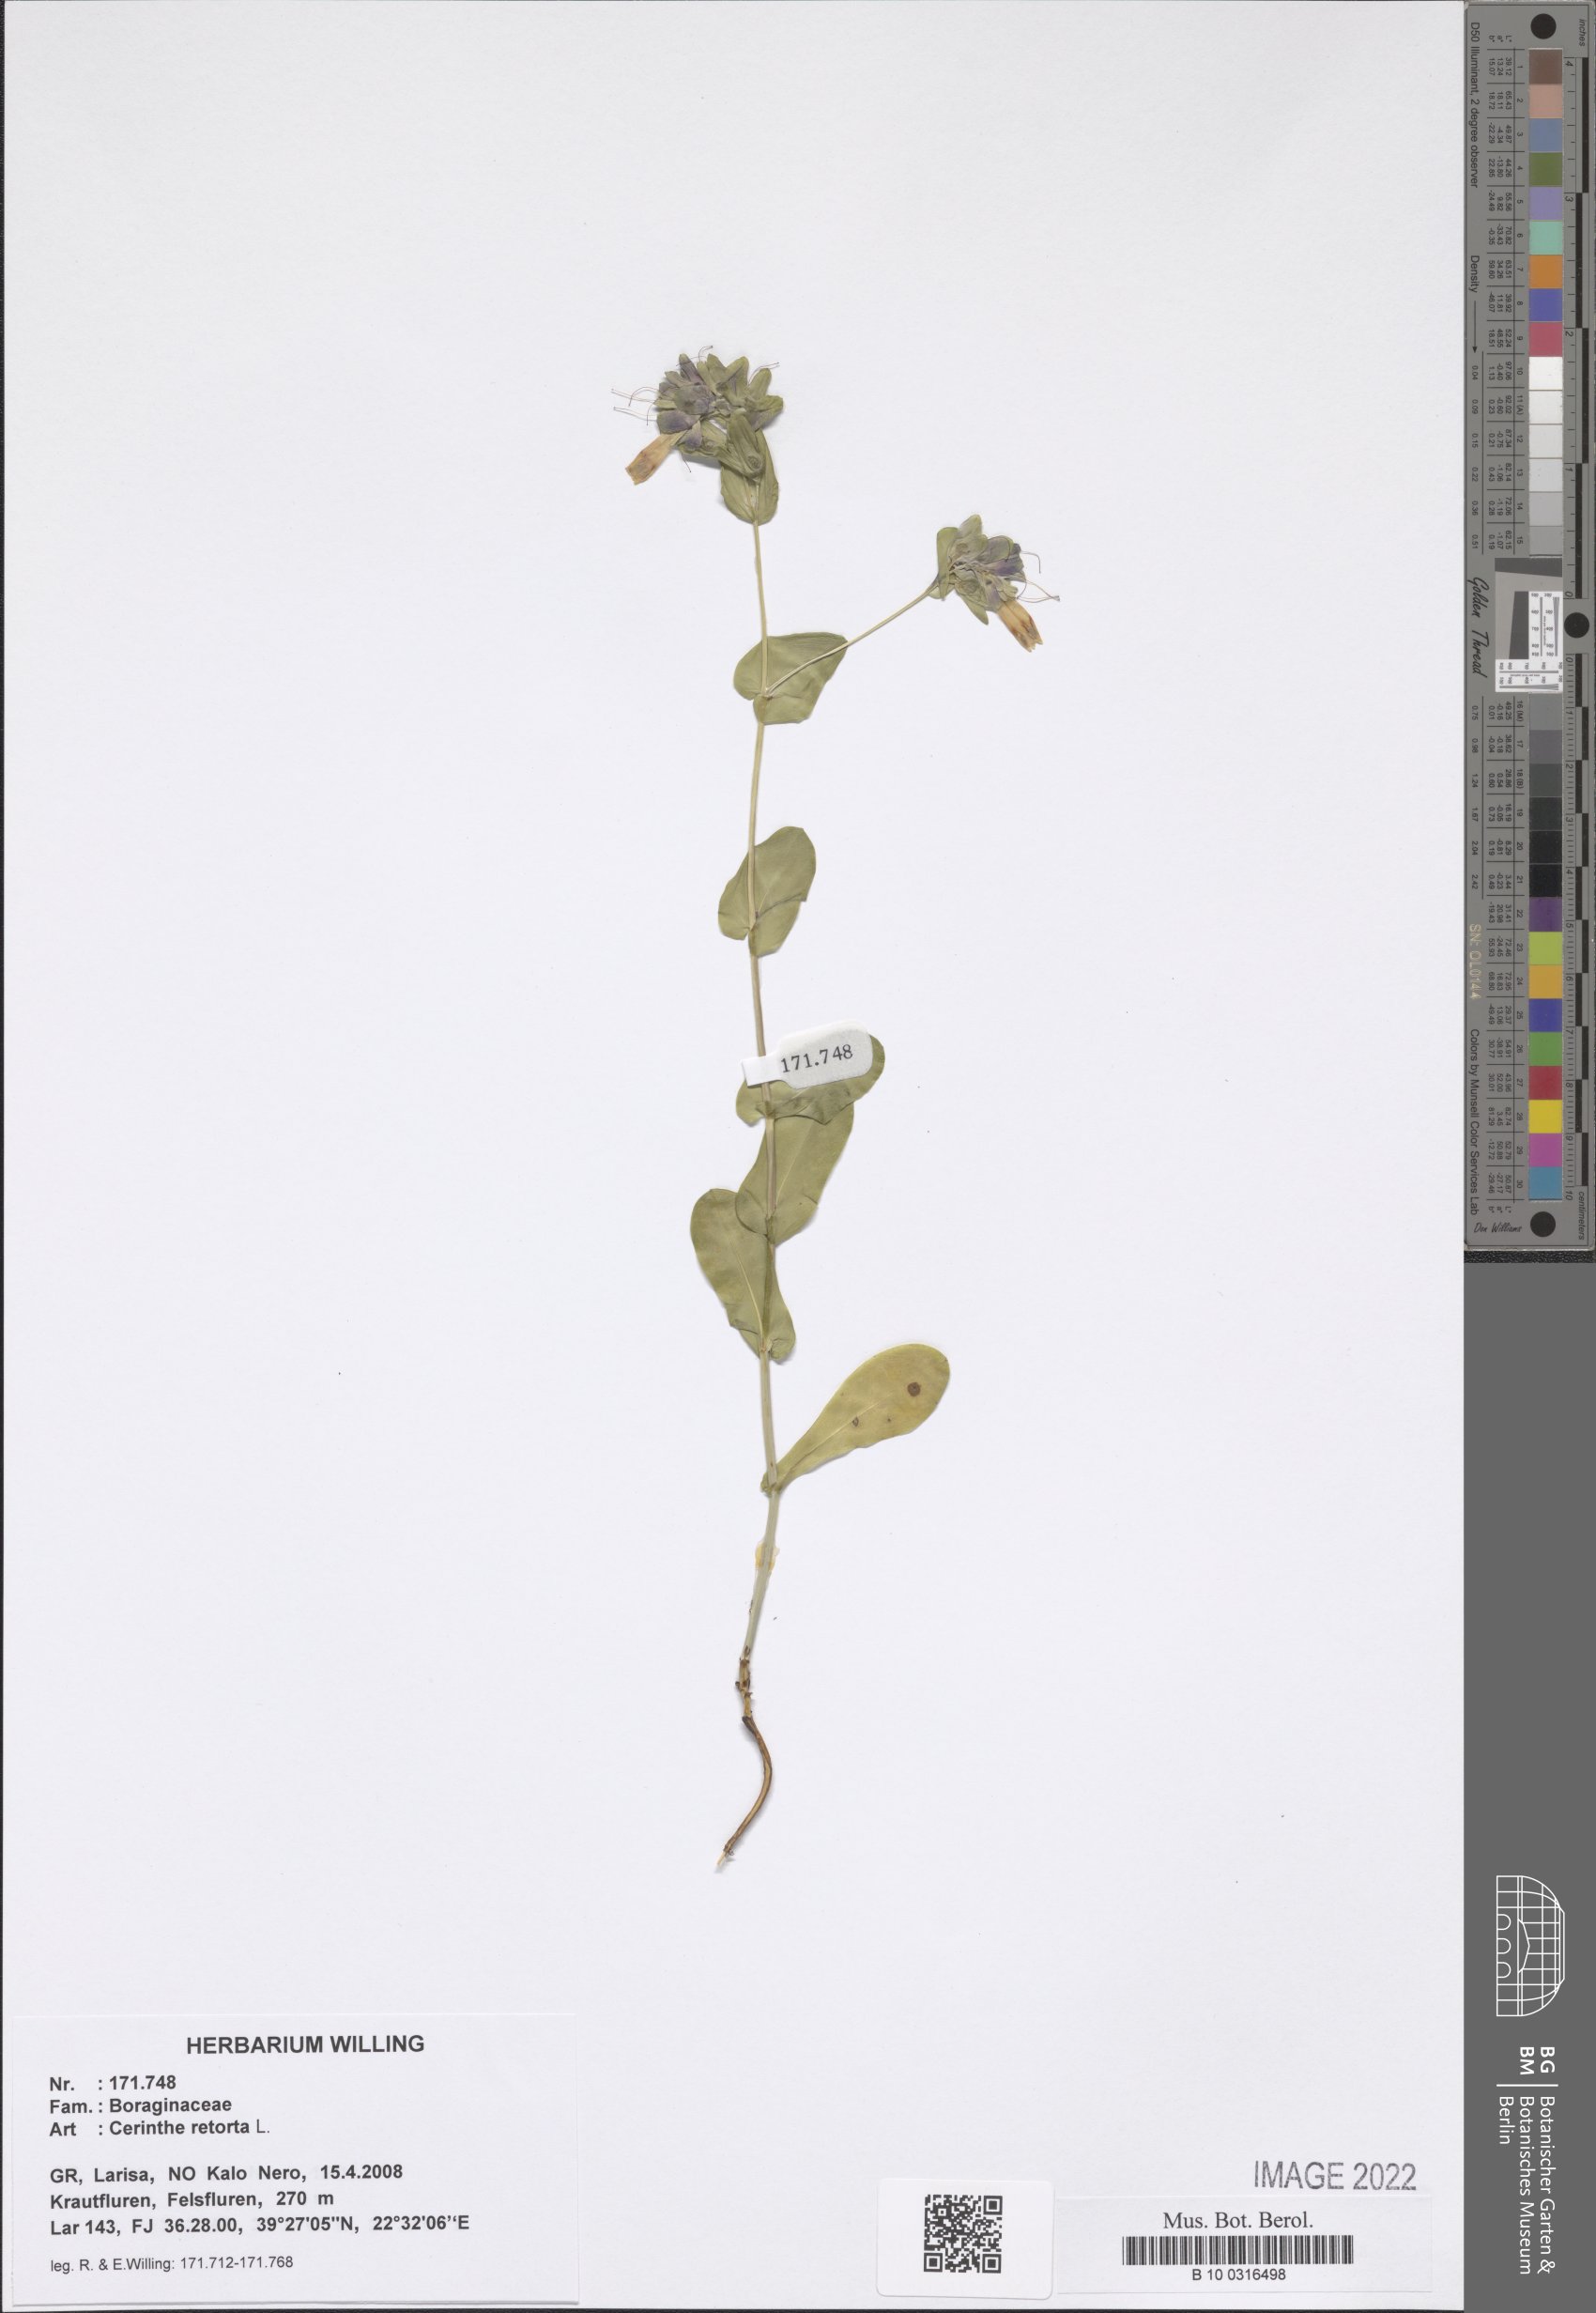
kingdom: Plantae
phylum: Tracheophyta
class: Magnoliopsida
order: Boraginales
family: Boraginaceae
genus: Cerinthe
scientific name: Cerinthe retorta
